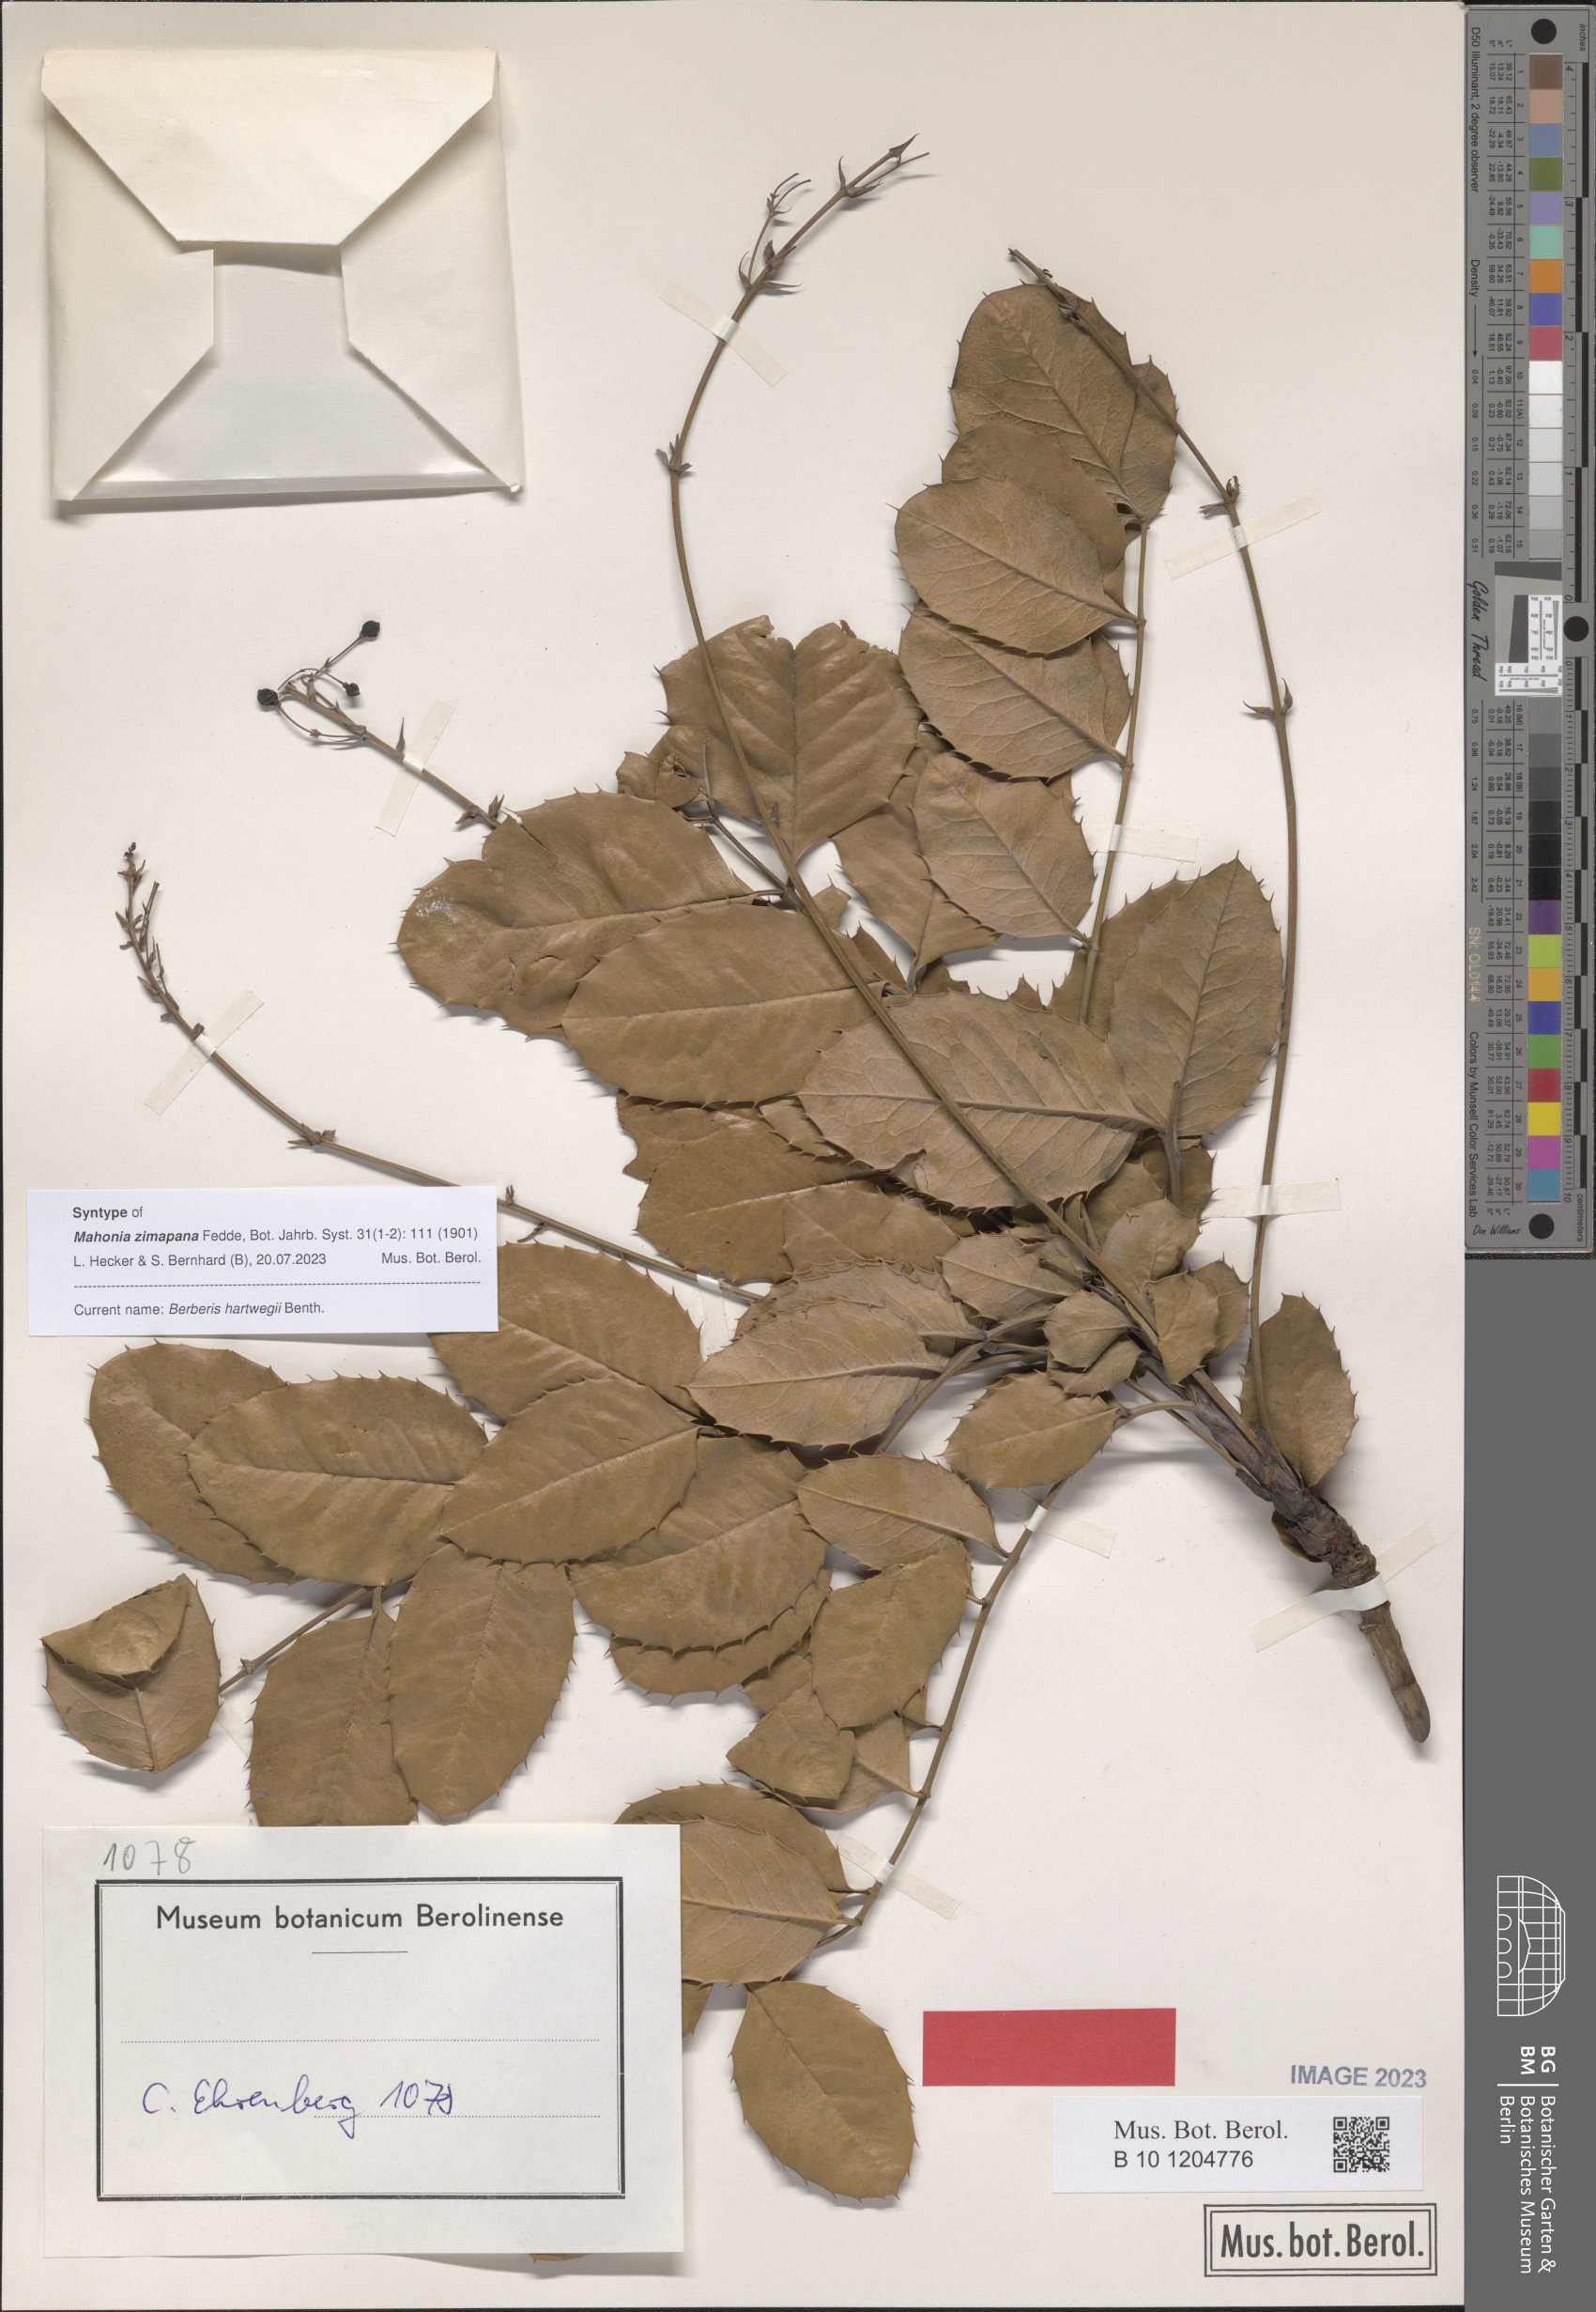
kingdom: Plantae
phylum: Tracheophyta
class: Magnoliopsida
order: Ranunculales
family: Berberidaceae
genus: Mahonia
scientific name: Mahonia hartwegii
